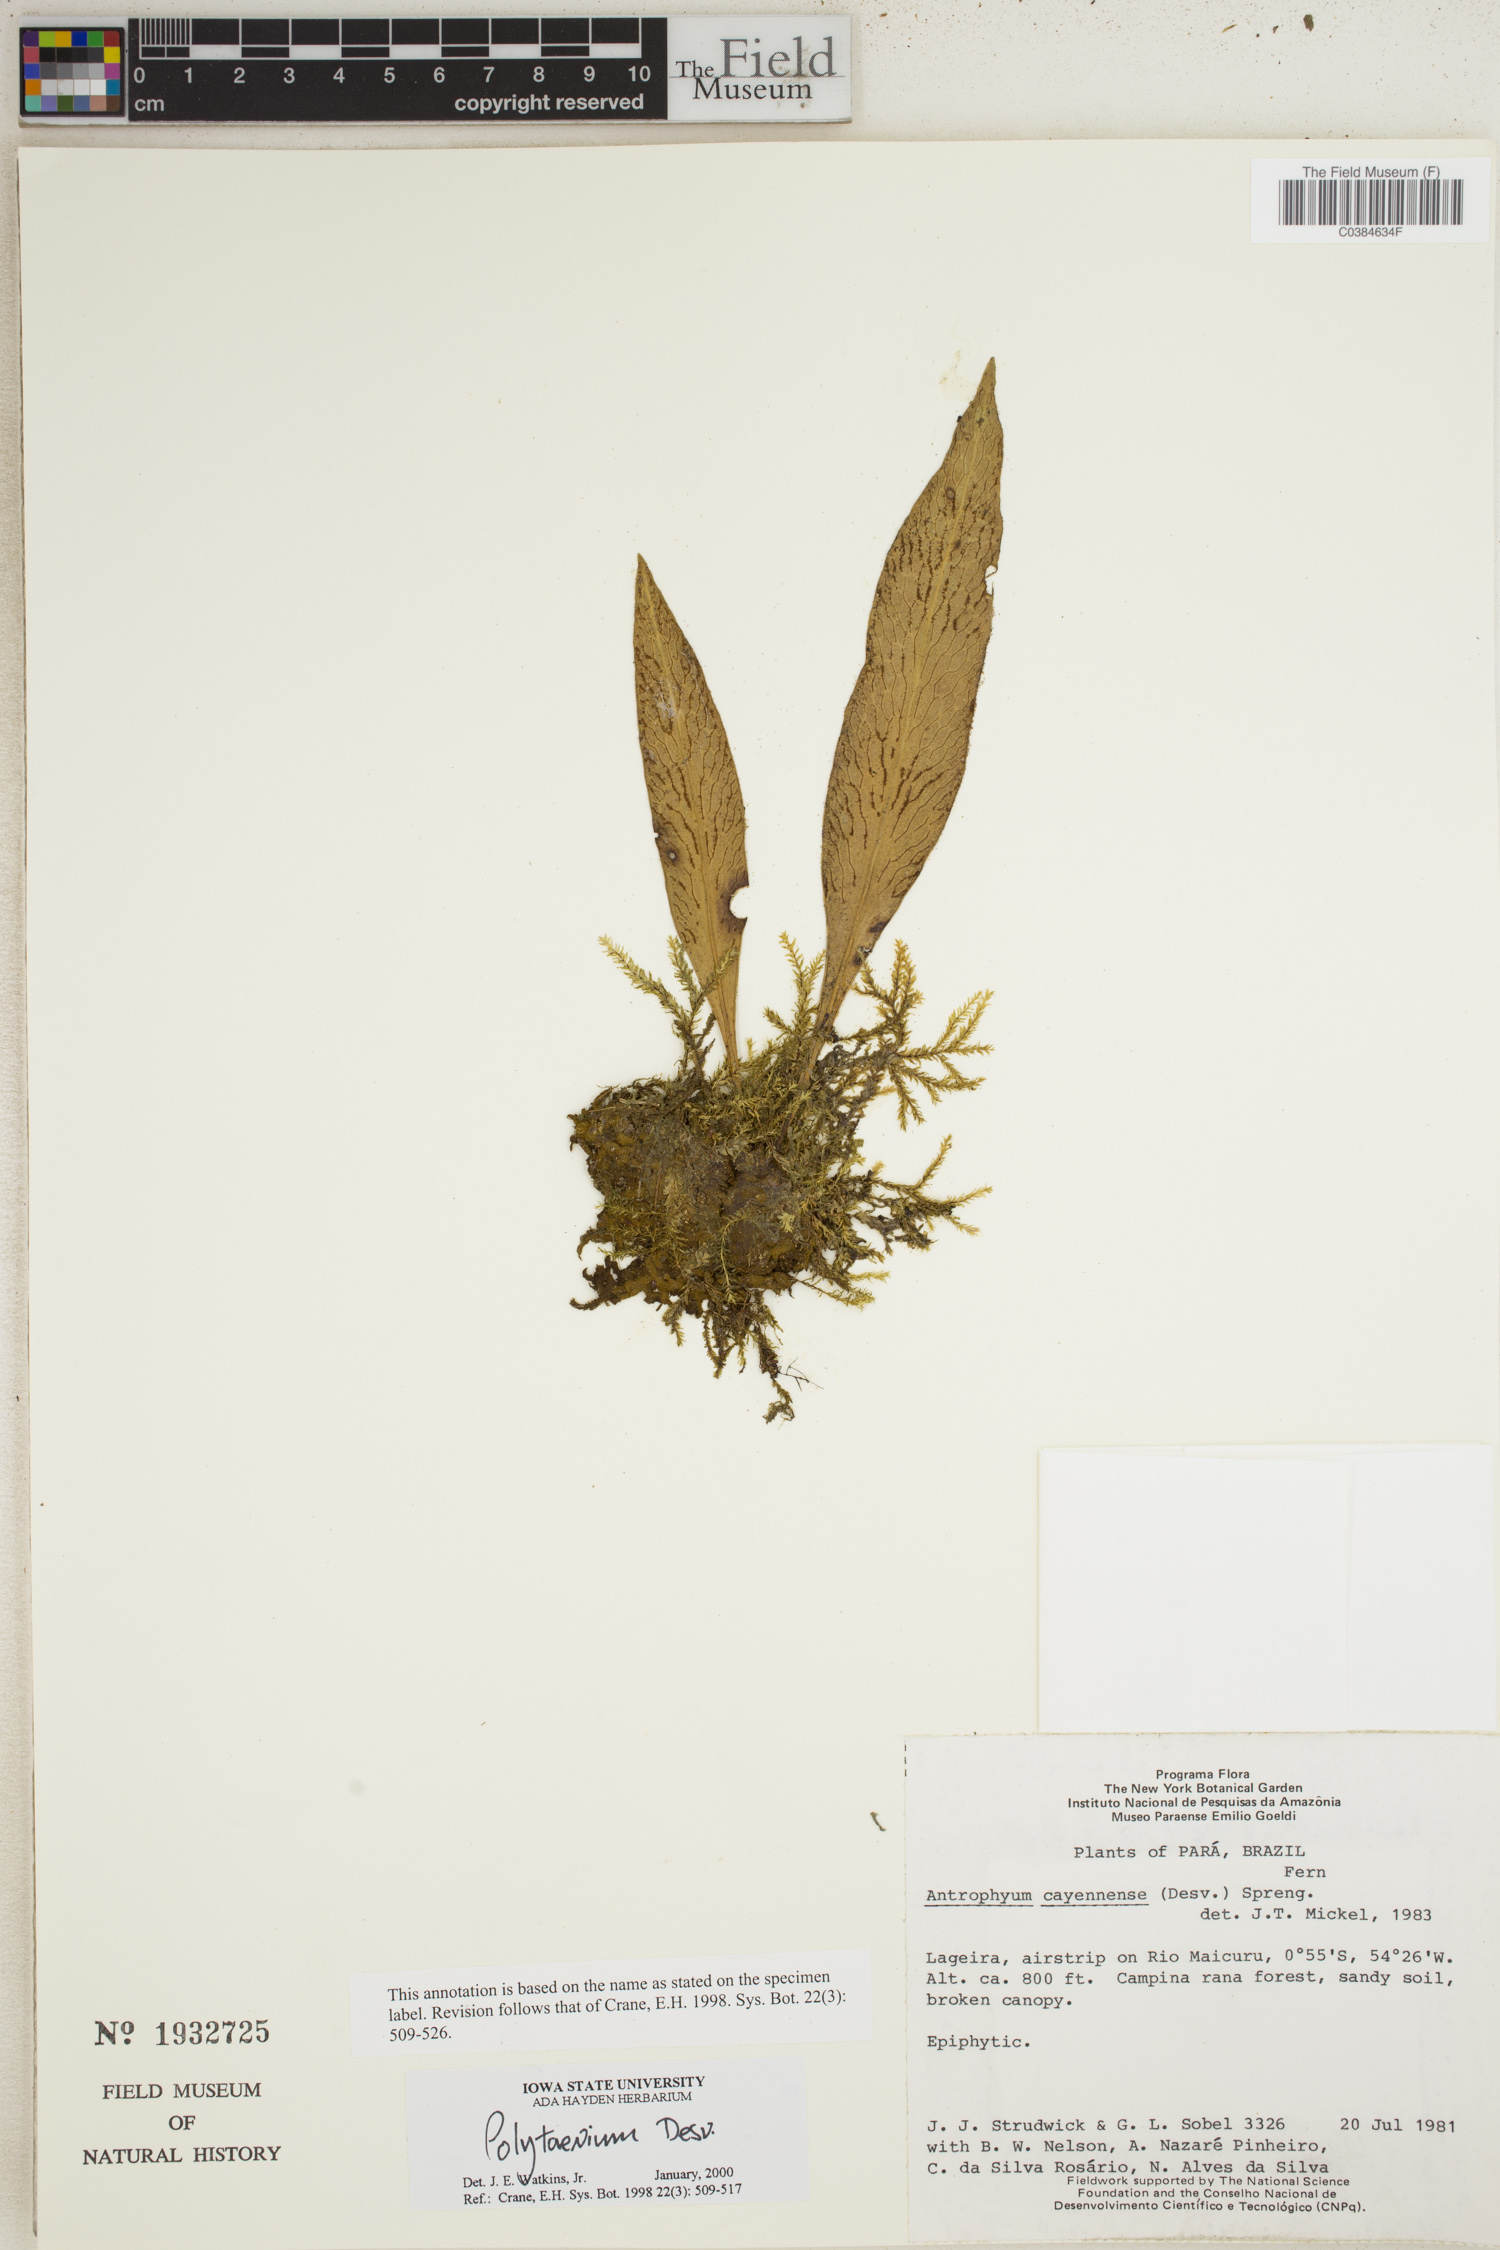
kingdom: Plantae
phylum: Tracheophyta
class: Polypodiopsida
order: Polypodiales
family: Pteridaceae
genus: Polytaenium
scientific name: Polytaenium
